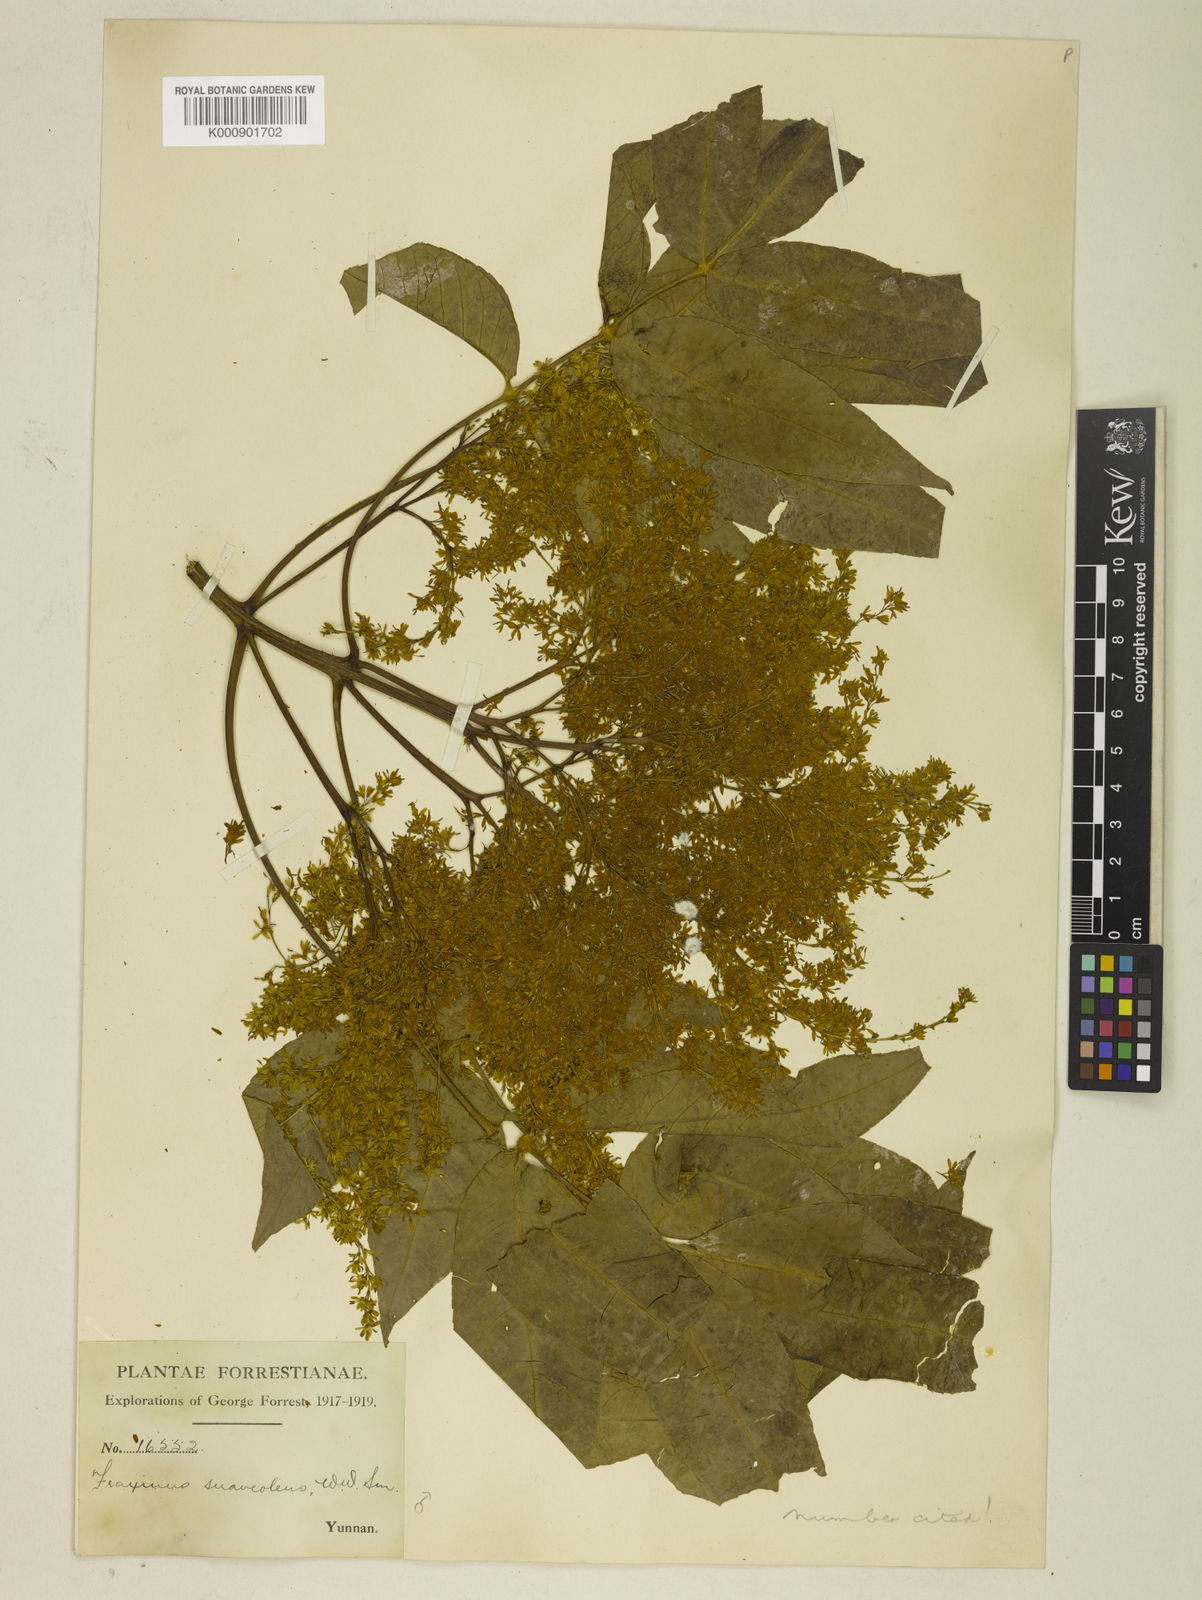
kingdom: Plantae
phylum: Tracheophyta
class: Magnoliopsida
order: Lamiales
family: Oleaceae
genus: Fraxinus
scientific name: Fraxinus paxiana
